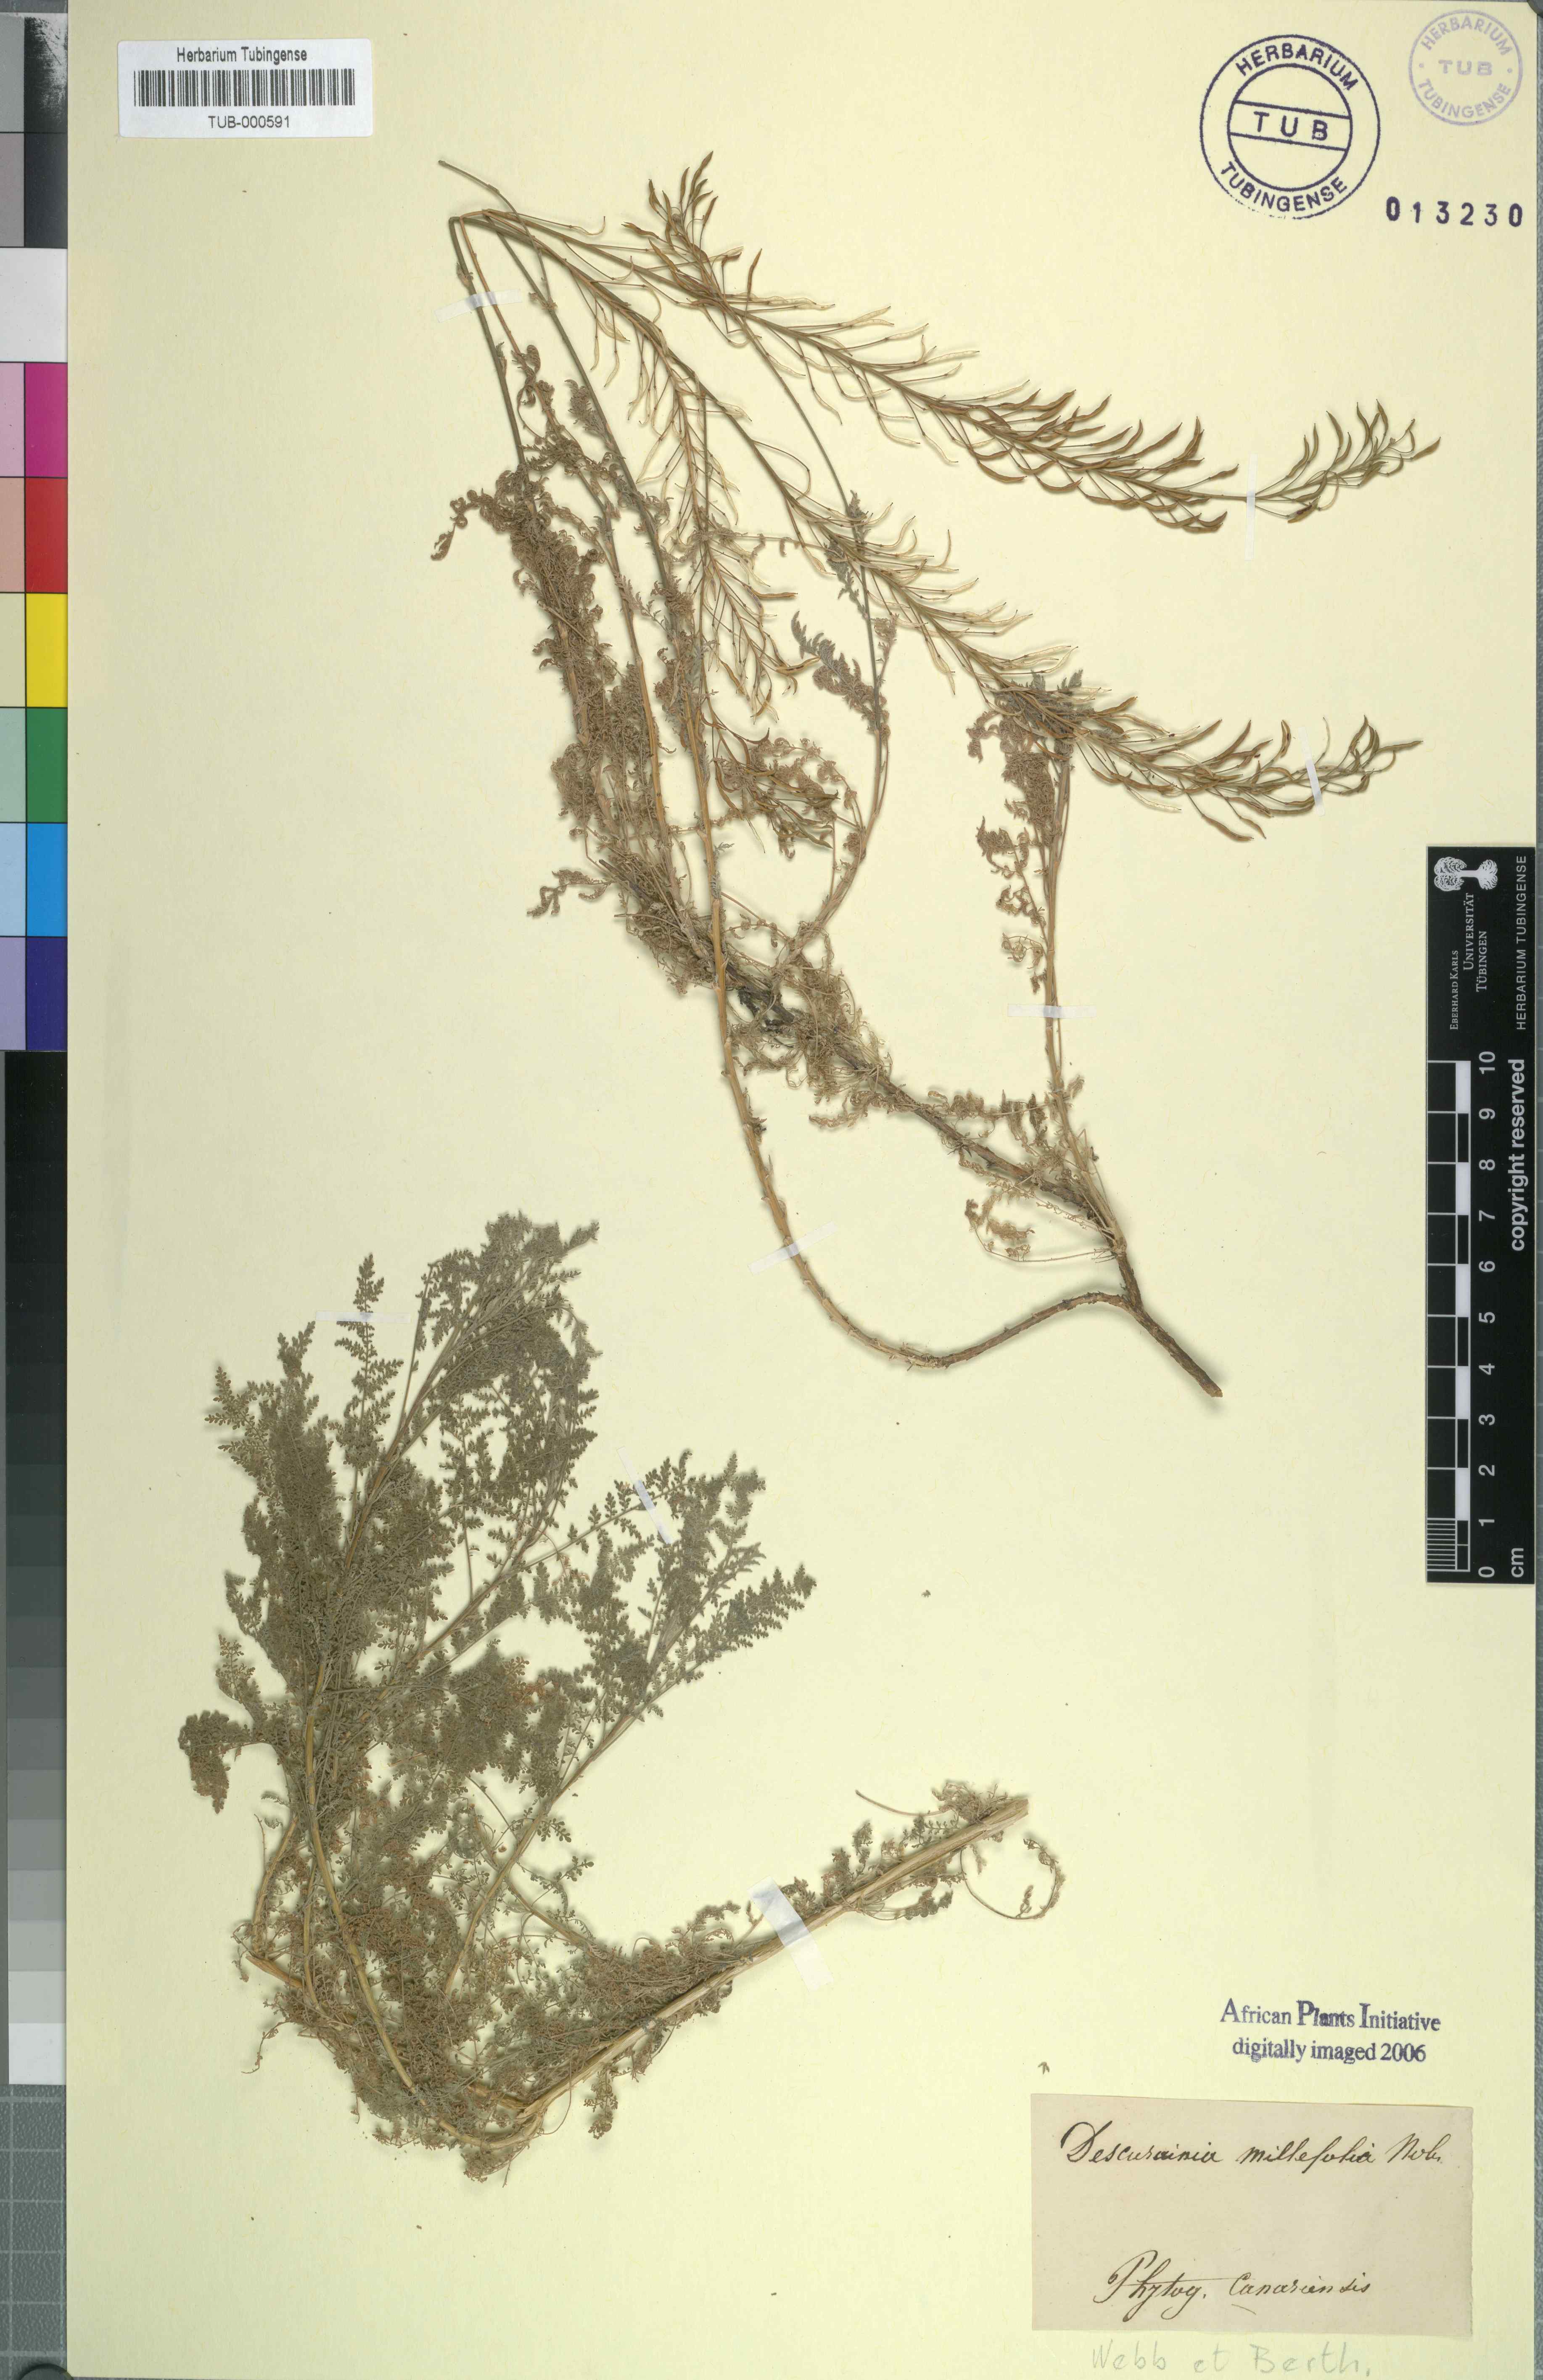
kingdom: Plantae
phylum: Tracheophyta
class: Magnoliopsida
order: Brassicales
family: Brassicaceae
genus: Sisymbrium
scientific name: Sisymbrium irio
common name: London rocket
